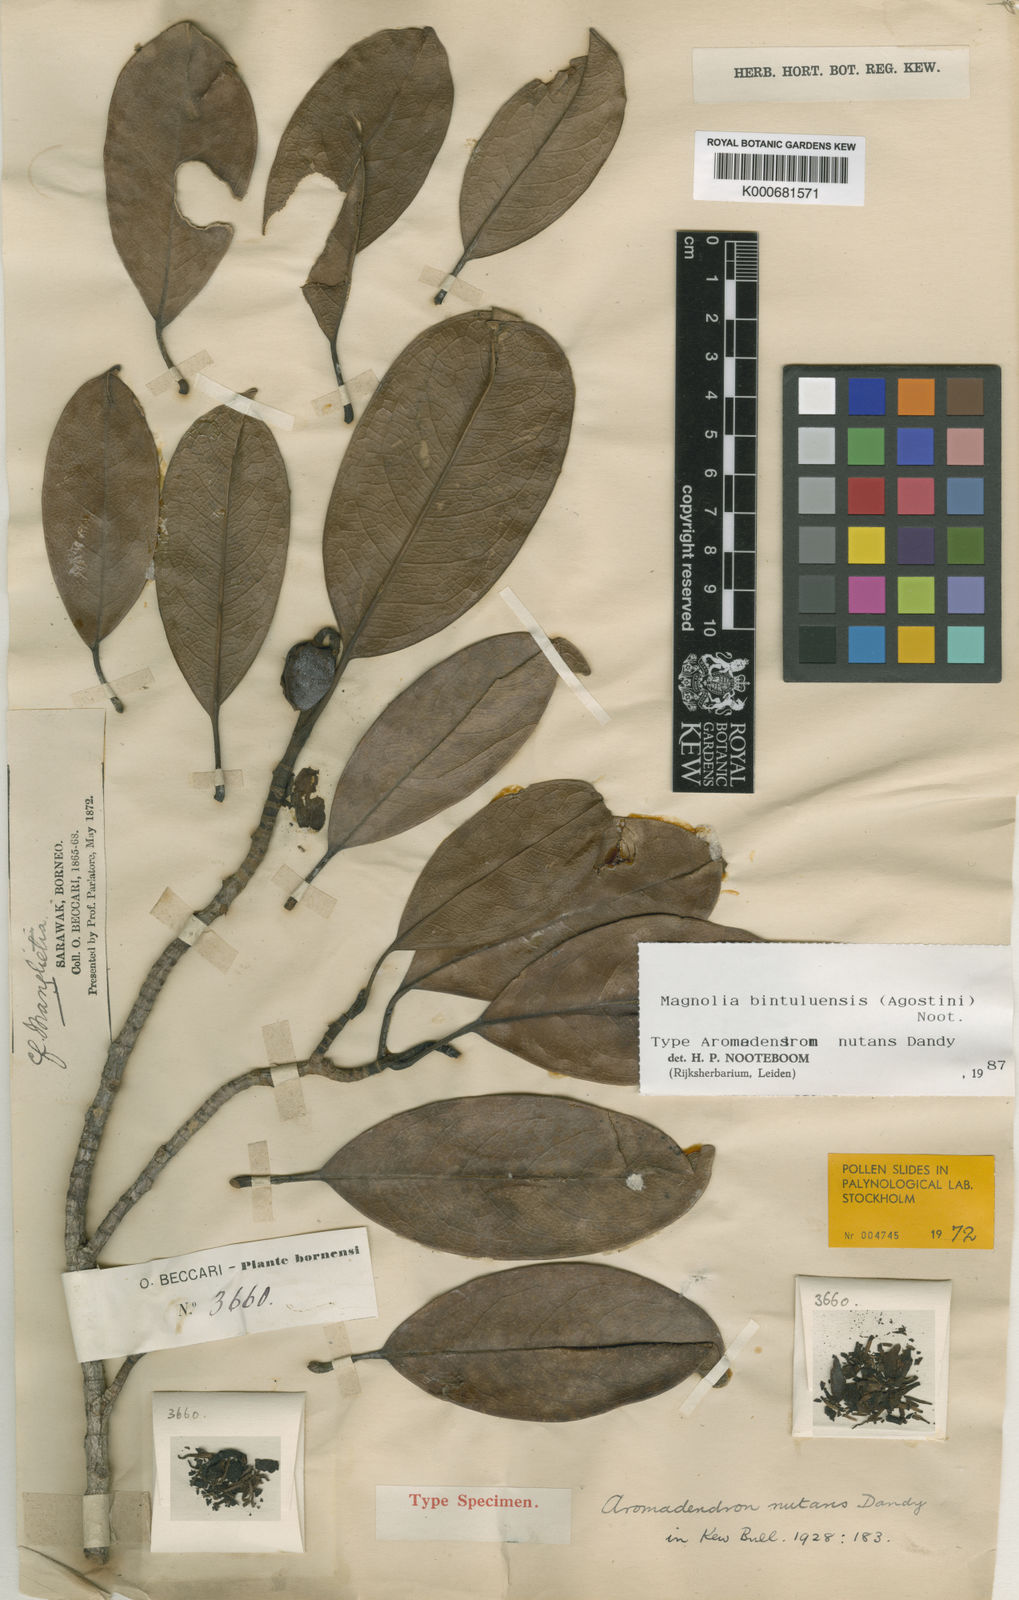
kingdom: Plantae
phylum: Tracheophyta
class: Magnoliopsida
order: Magnoliales
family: Magnoliaceae
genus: Magnolia
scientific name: Magnolia bintuluensis
